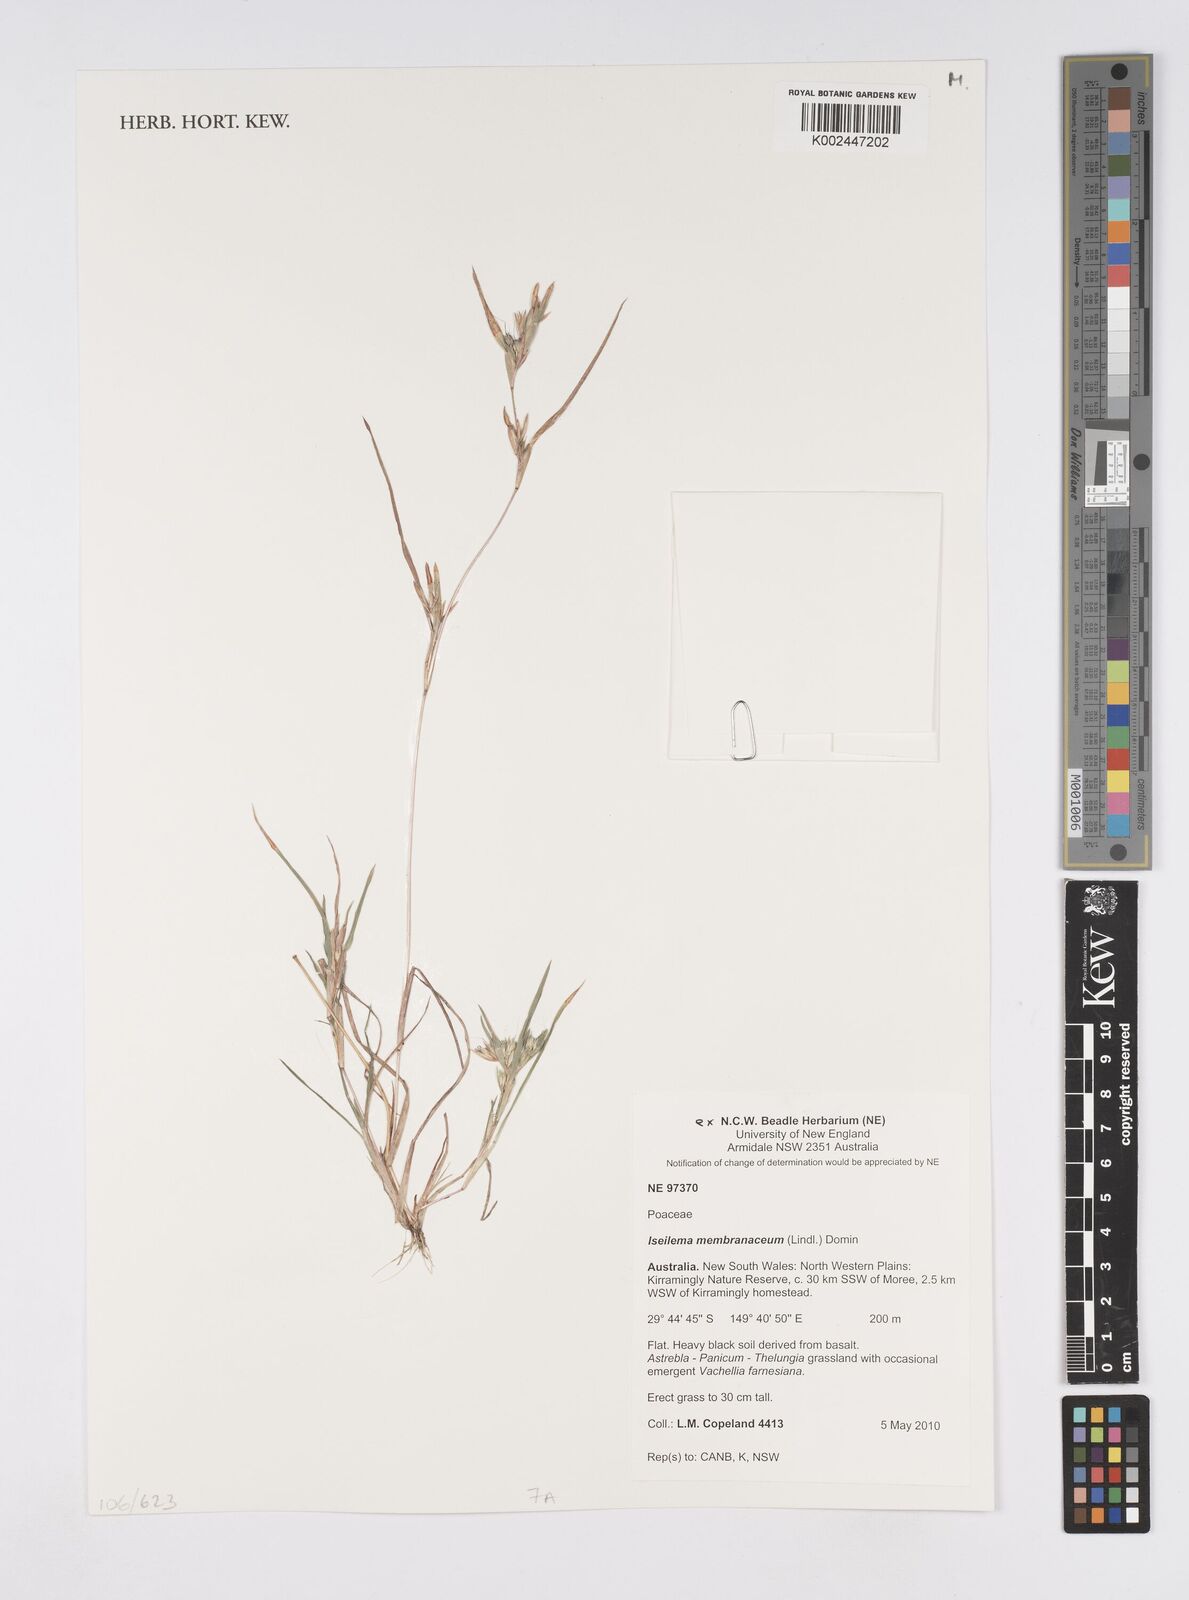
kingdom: Plantae
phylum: Tracheophyta
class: Liliopsida
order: Poales
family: Poaceae
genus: Iseilema
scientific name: Iseilema membranaceum
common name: Small flinders grass
